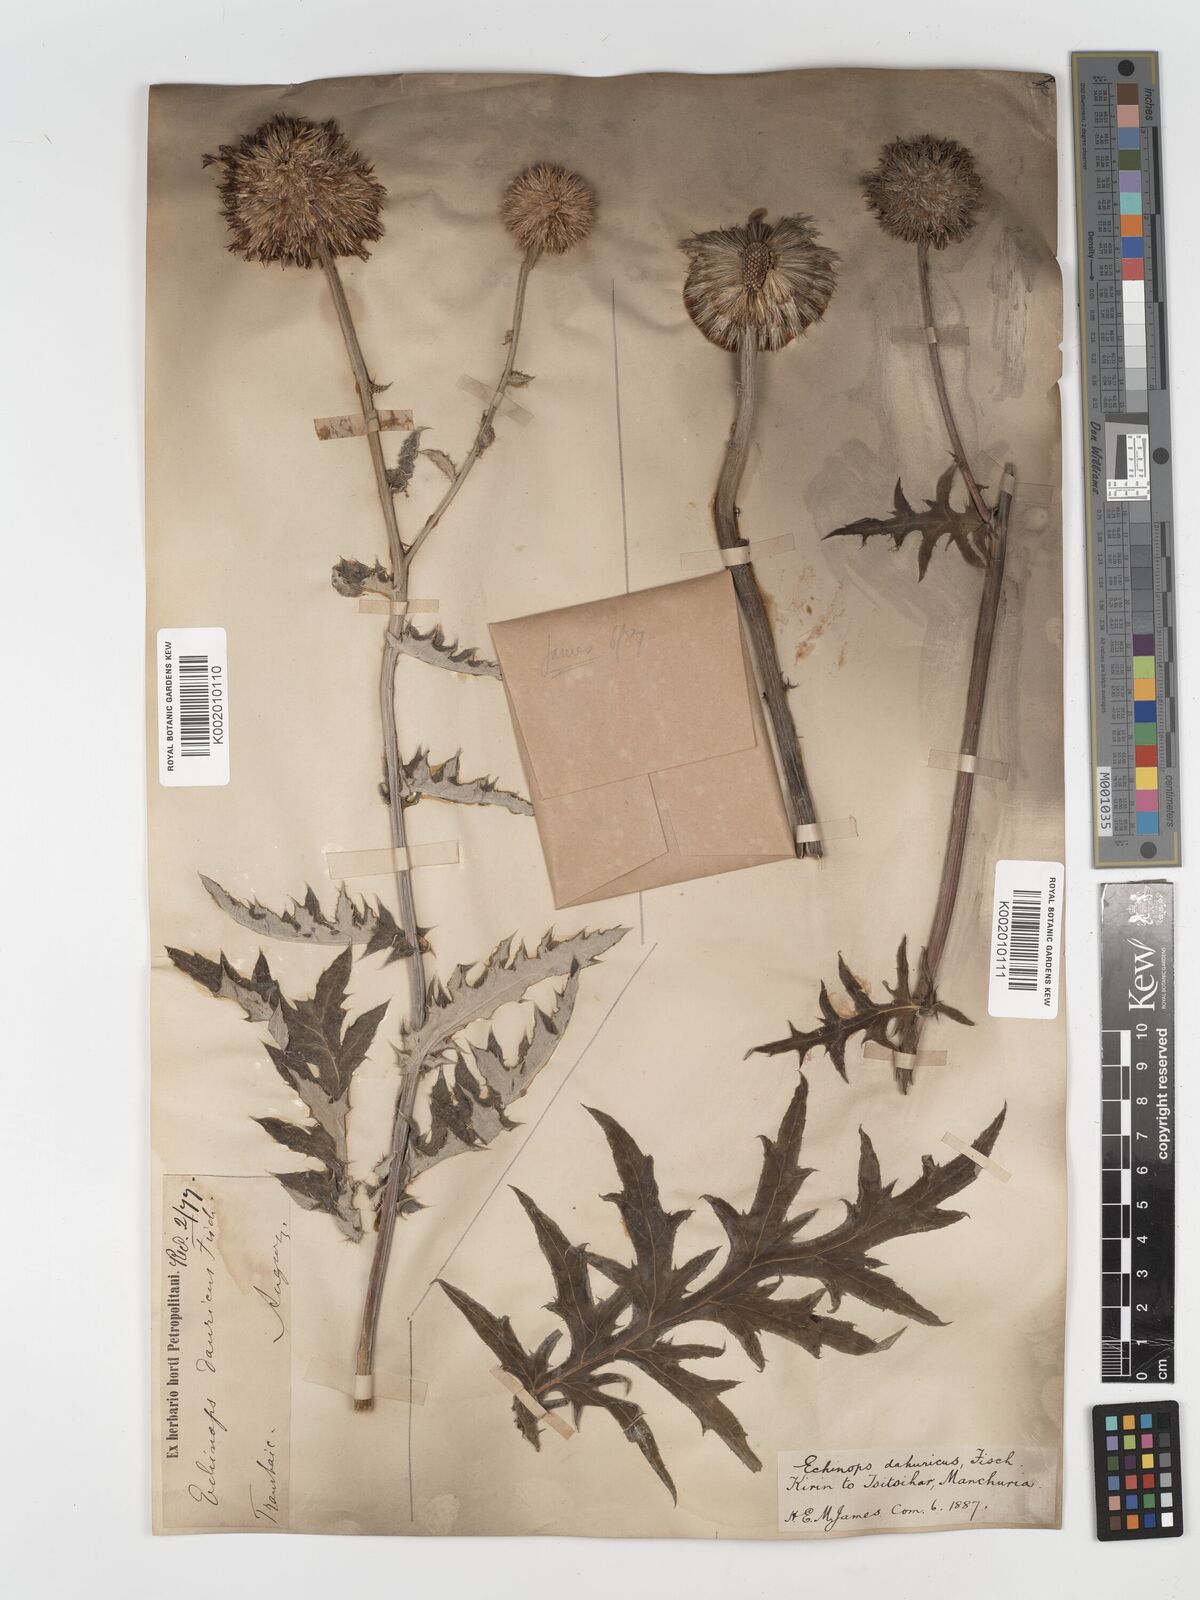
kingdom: Plantae
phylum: Tracheophyta
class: Magnoliopsida
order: Asterales
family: Asteraceae
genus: Echinops
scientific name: Echinops humilis
